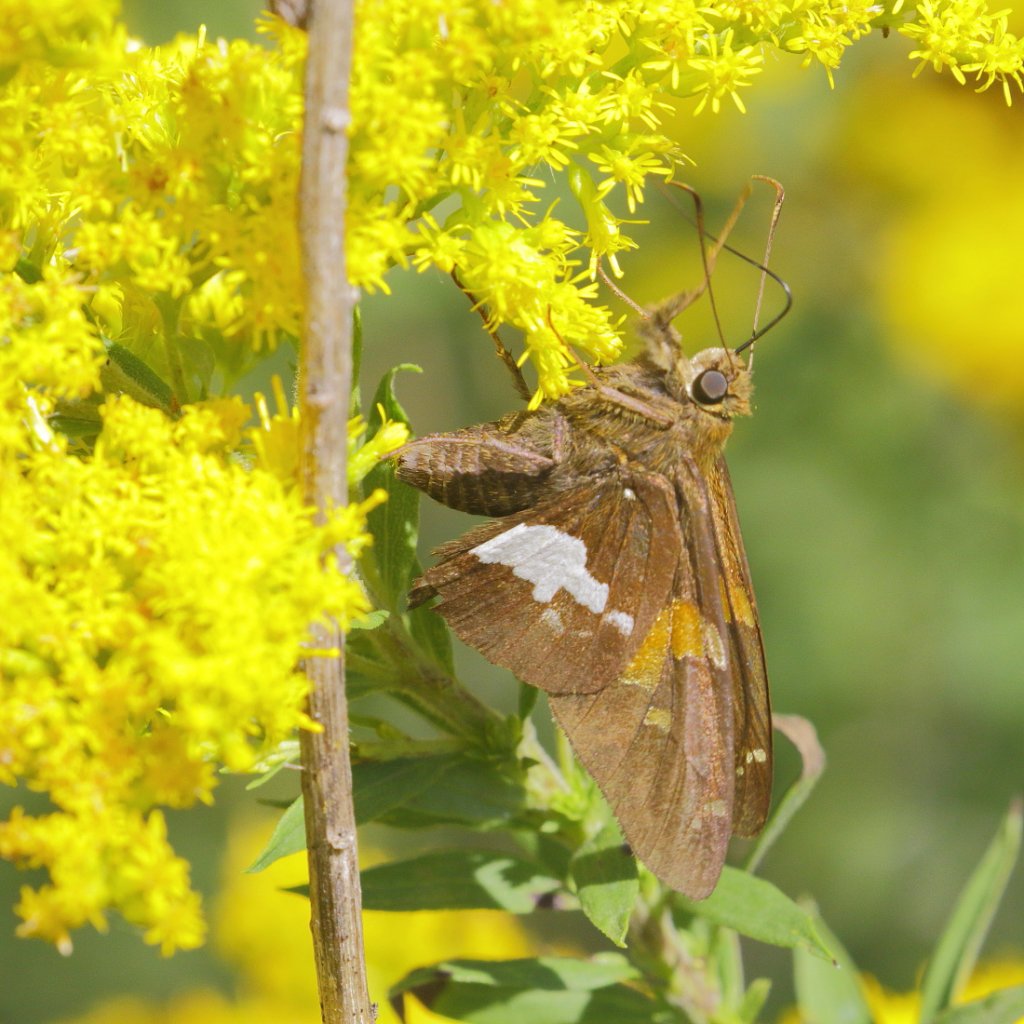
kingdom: Animalia
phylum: Arthropoda
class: Insecta
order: Lepidoptera
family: Hesperiidae
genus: Epargyreus
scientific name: Epargyreus clarus
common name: Silver-spotted Skipper
